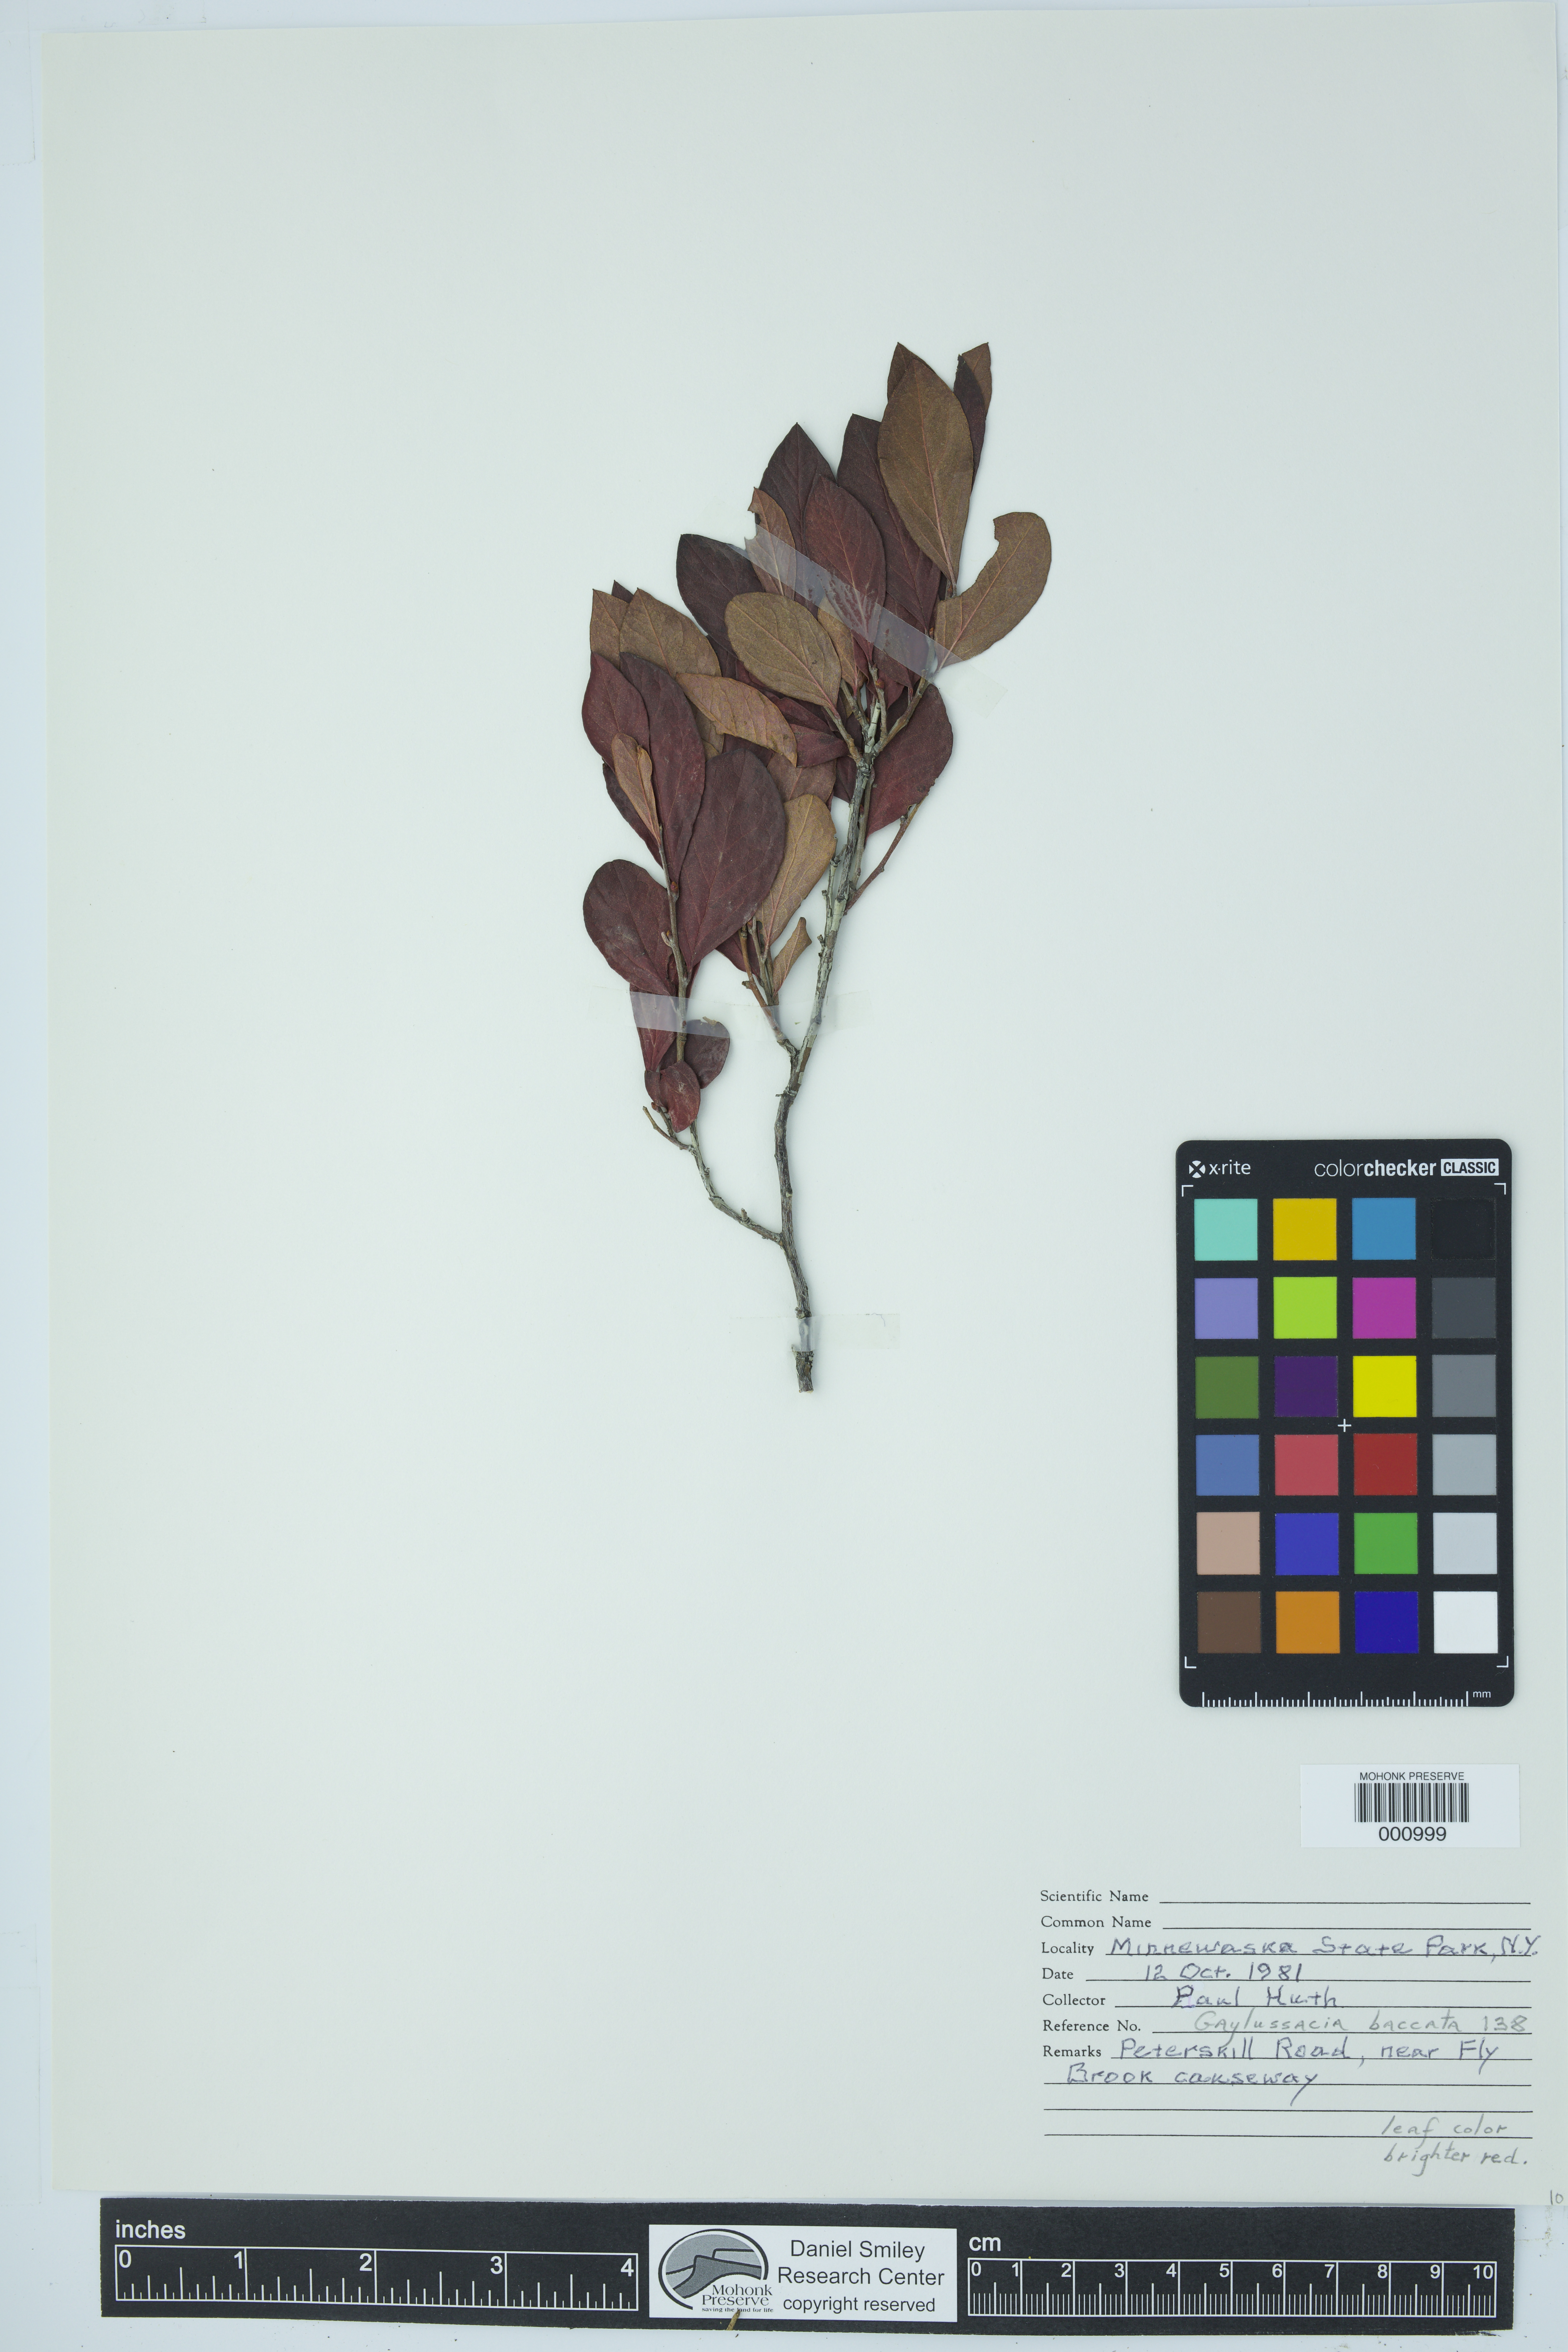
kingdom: Plantae
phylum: Tracheophyta
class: Magnoliopsida
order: Ericales
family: Ericaceae
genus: Gaylussacia
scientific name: Gaylussacia baccata
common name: Black huckleberry
